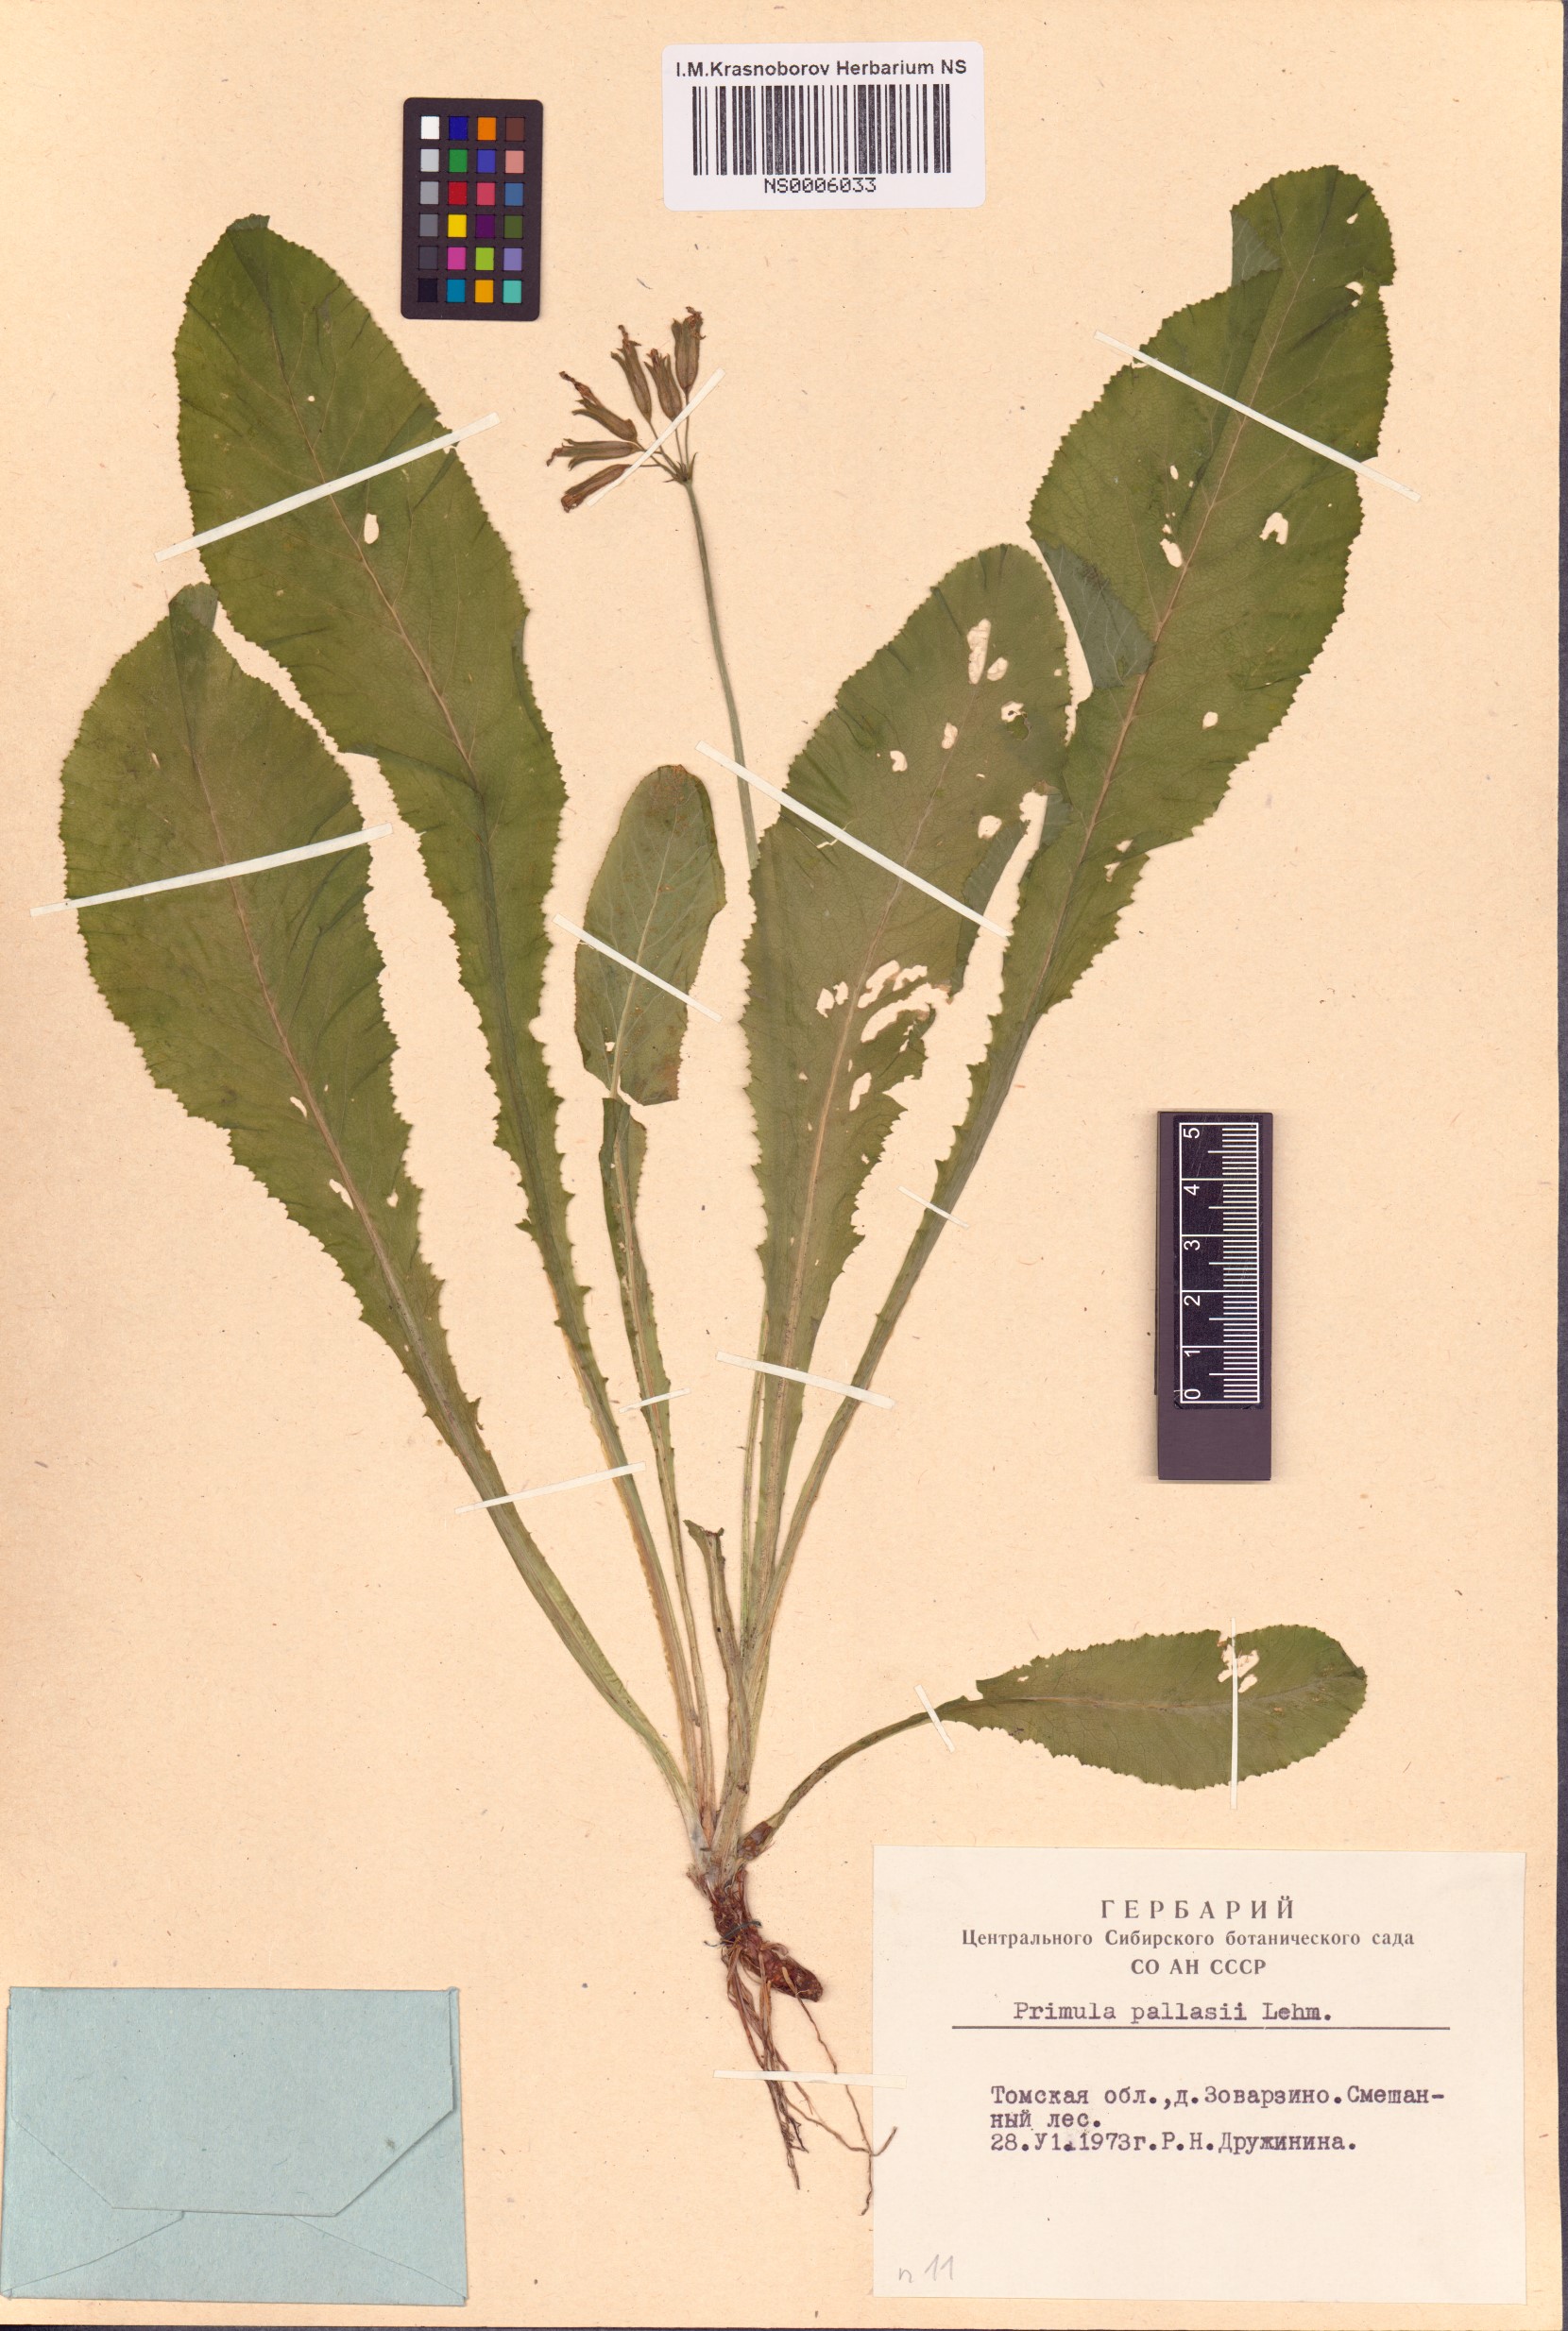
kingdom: Plantae
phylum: Tracheophyta
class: Magnoliopsida
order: Ericales
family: Primulaceae
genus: Primula
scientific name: Primula elatior
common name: Oxlip
